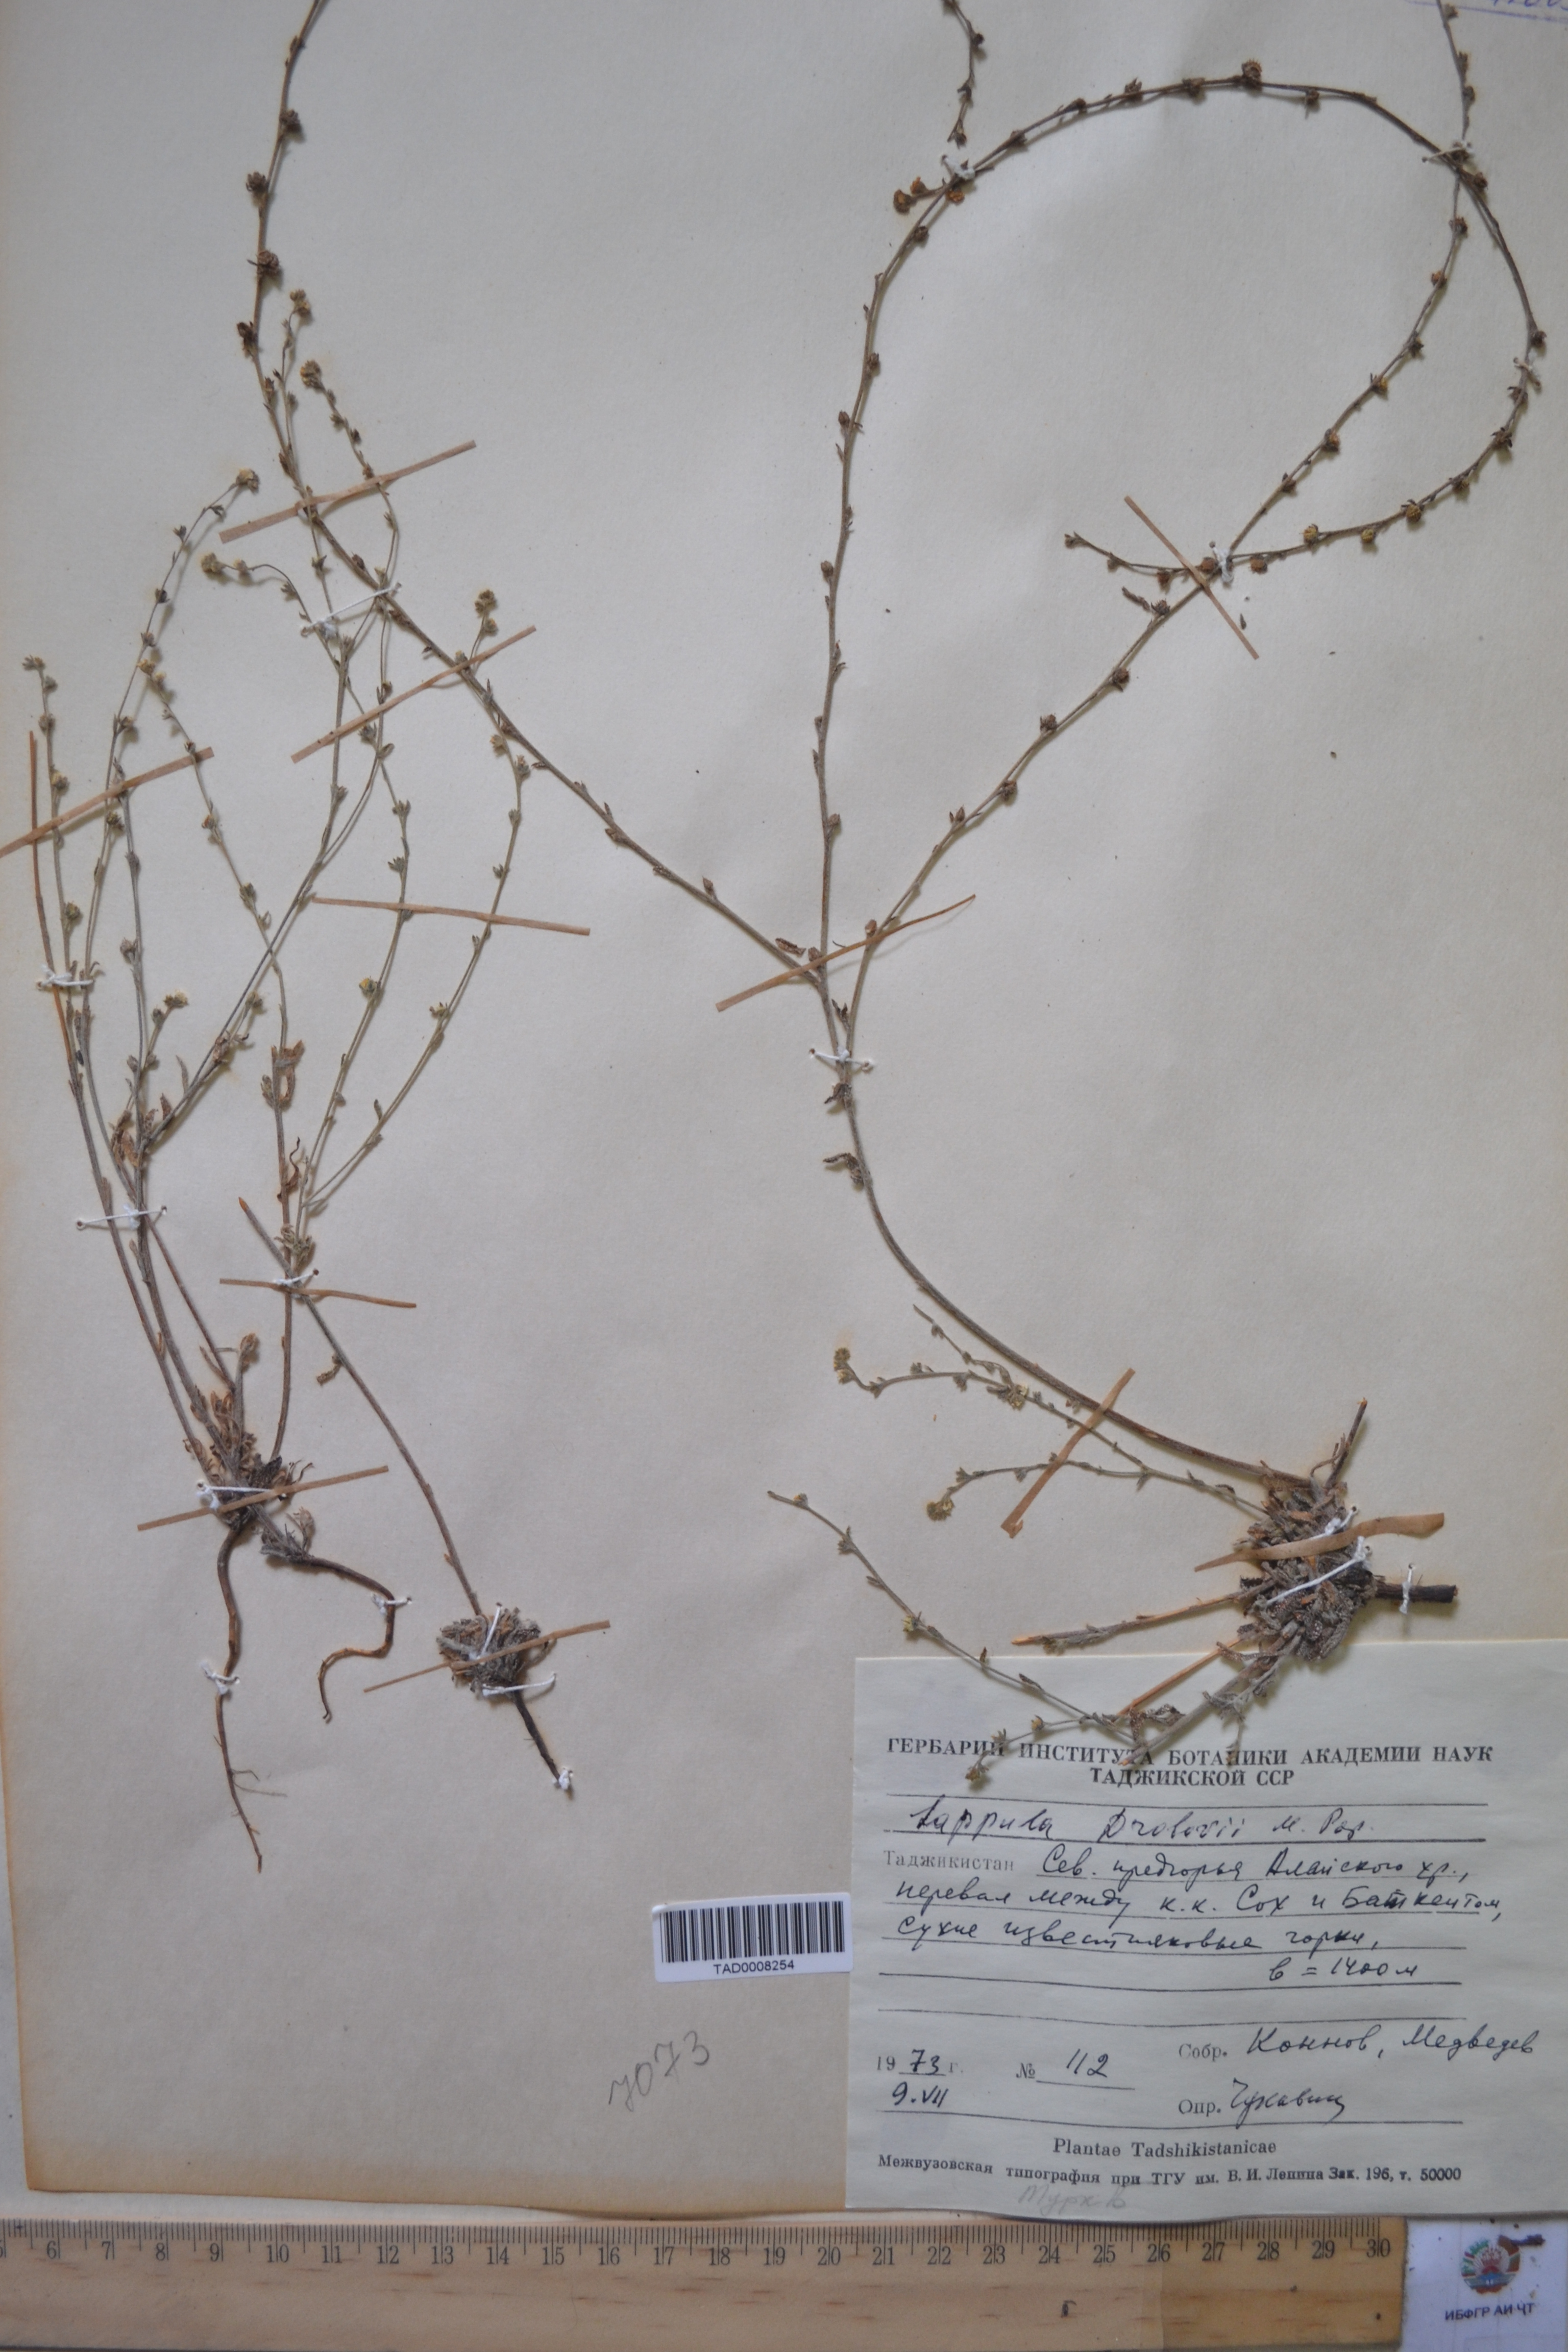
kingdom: Plantae
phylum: Tracheophyta
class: Magnoliopsida
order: Boraginales
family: Boraginaceae
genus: Rochelia
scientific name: Rochelia drobovii
